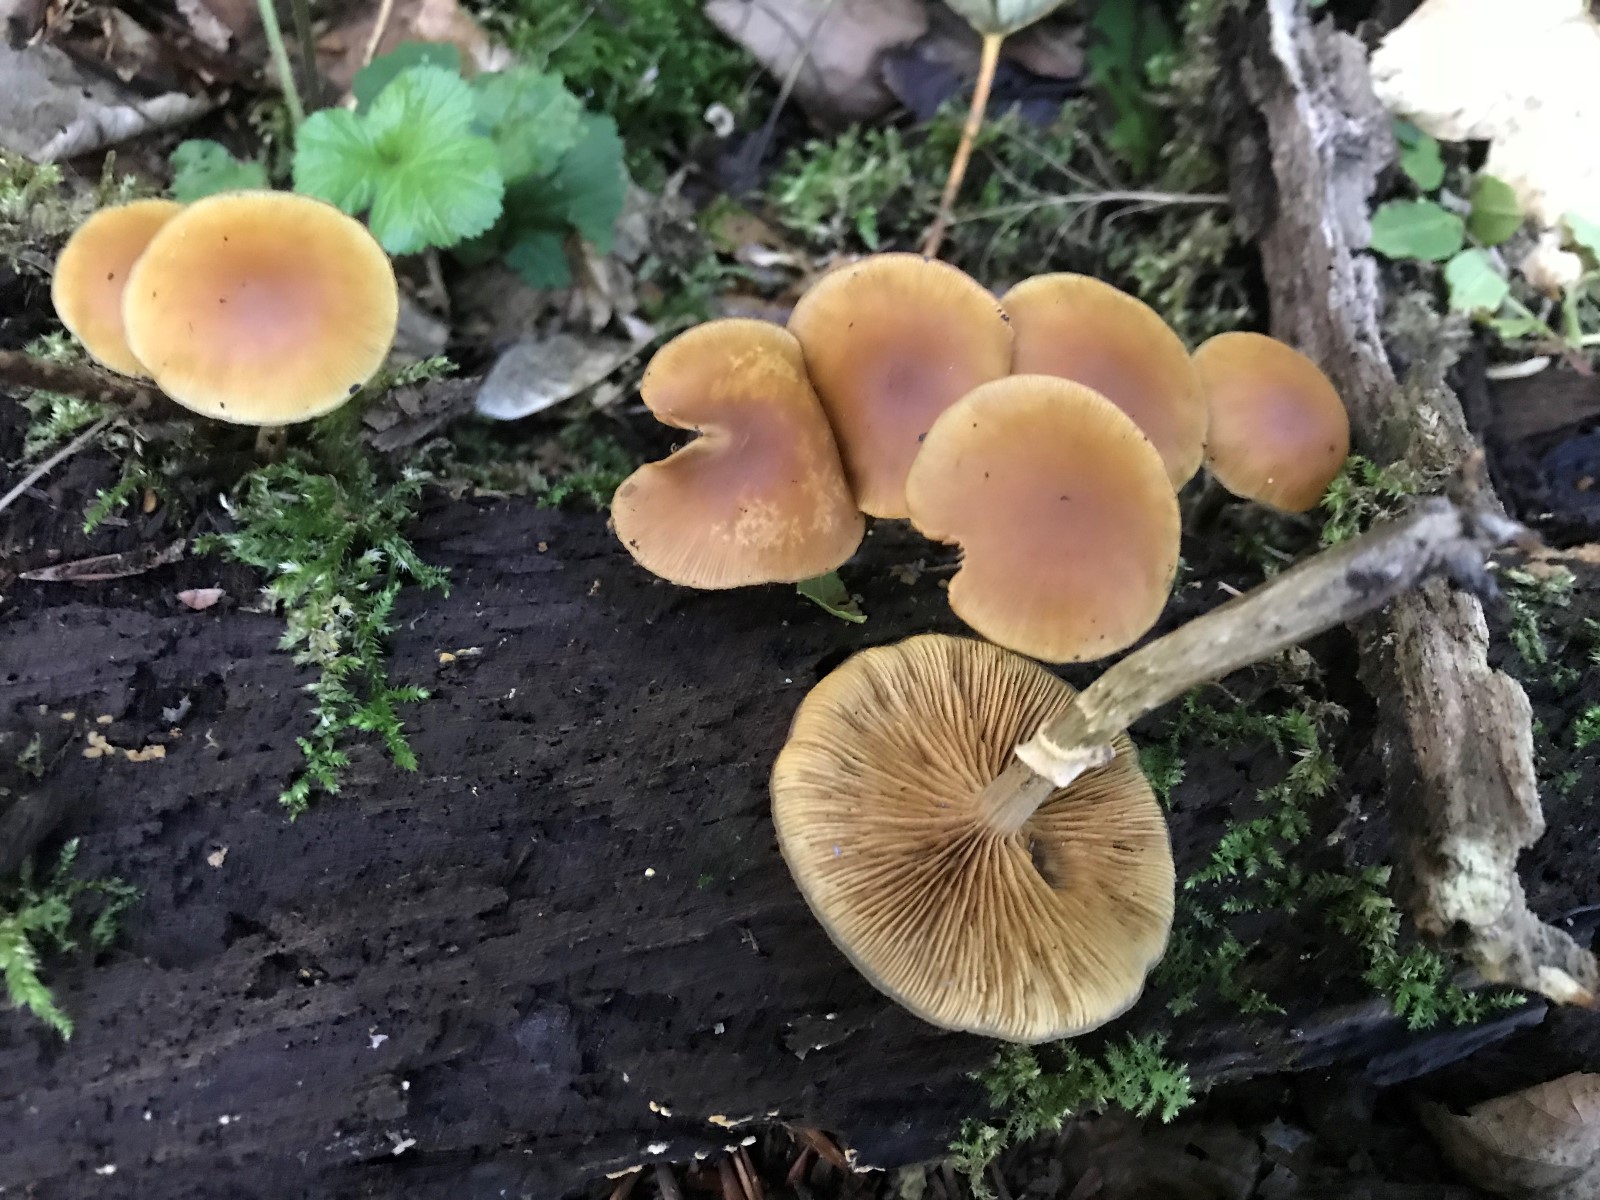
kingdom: Fungi
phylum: Basidiomycota
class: Agaricomycetes
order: Agaricales
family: Hymenogastraceae
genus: Galerina
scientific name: Galerina marginata
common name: randbæltet hjelmhat
